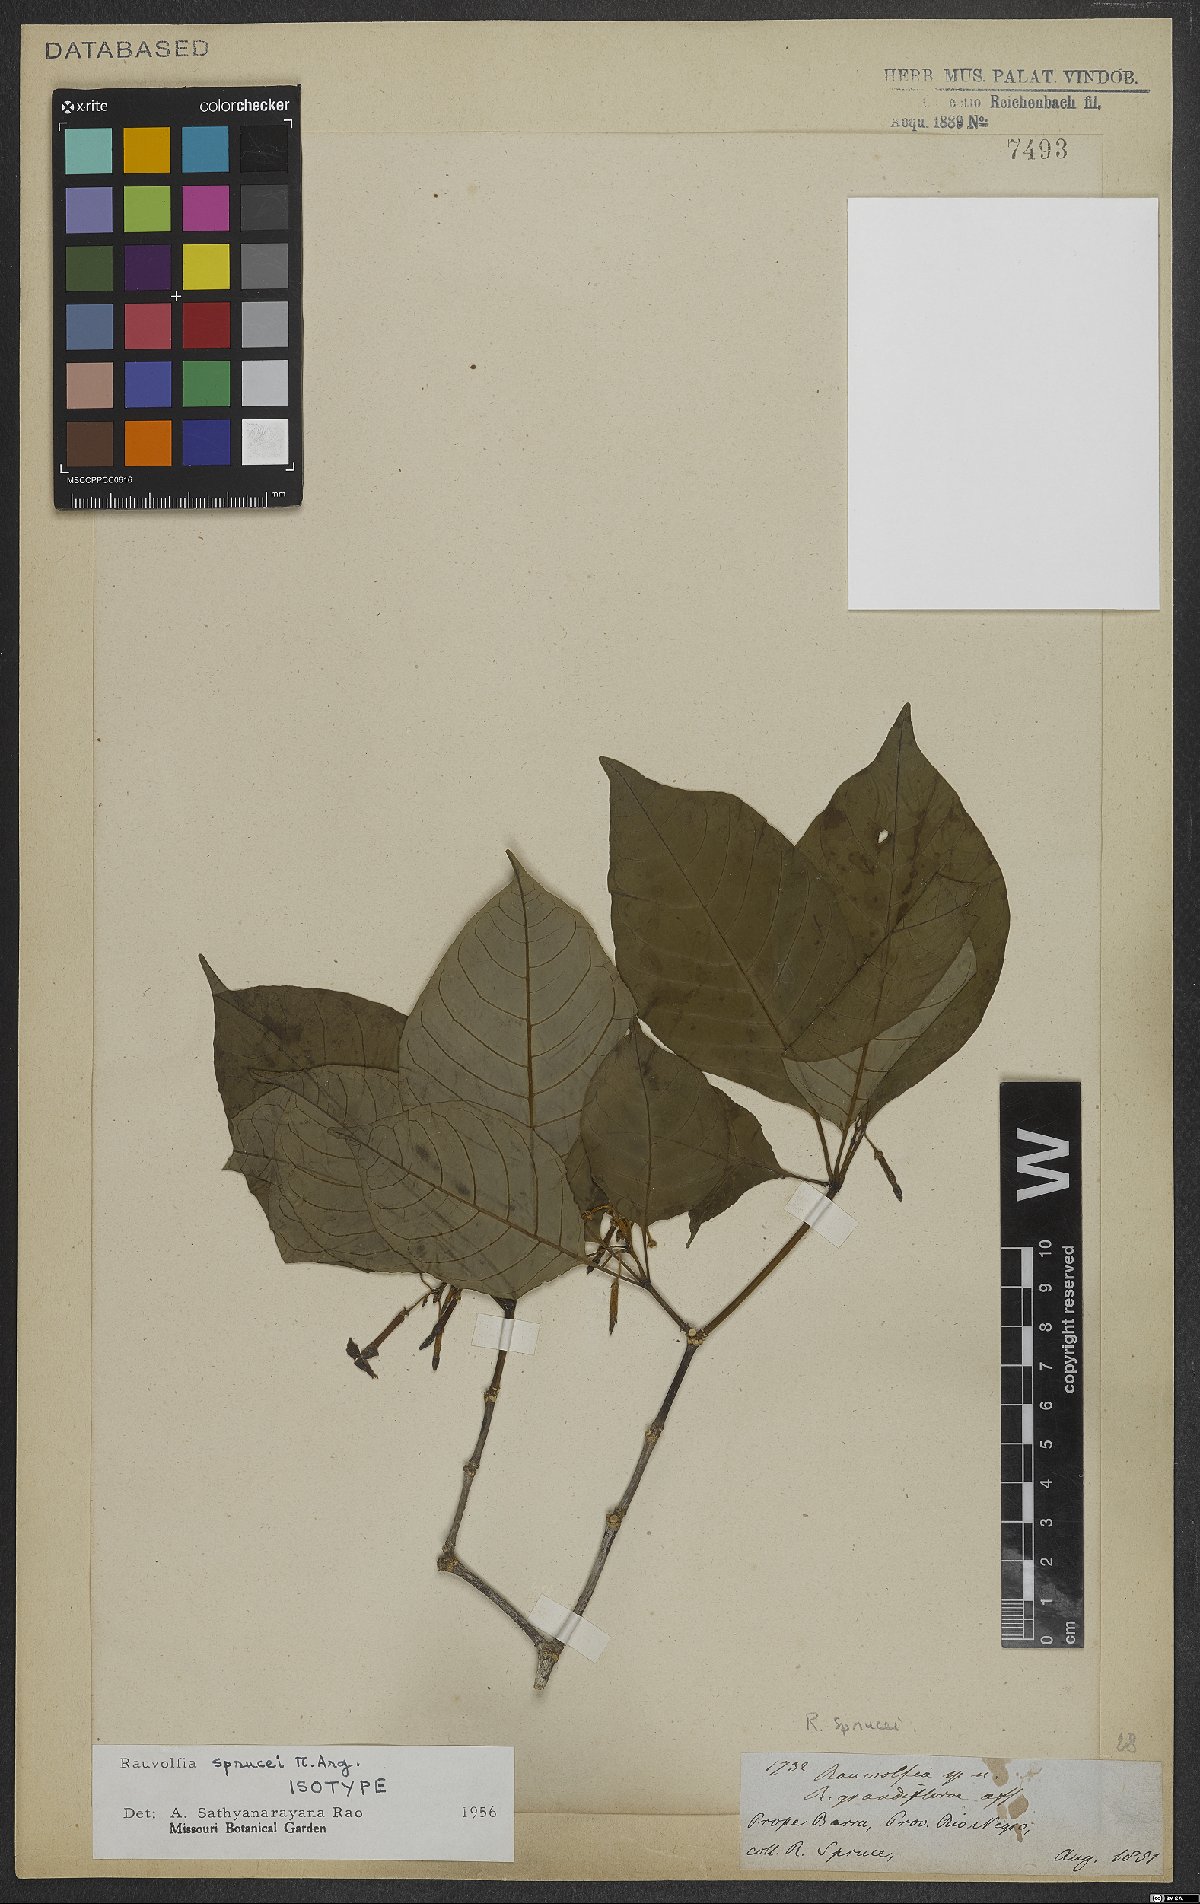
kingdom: Plantae
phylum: Tracheophyta
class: Magnoliopsida
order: Gentianales
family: Apocynaceae
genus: Rauvolfia
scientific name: Rauvolfia sprucei
